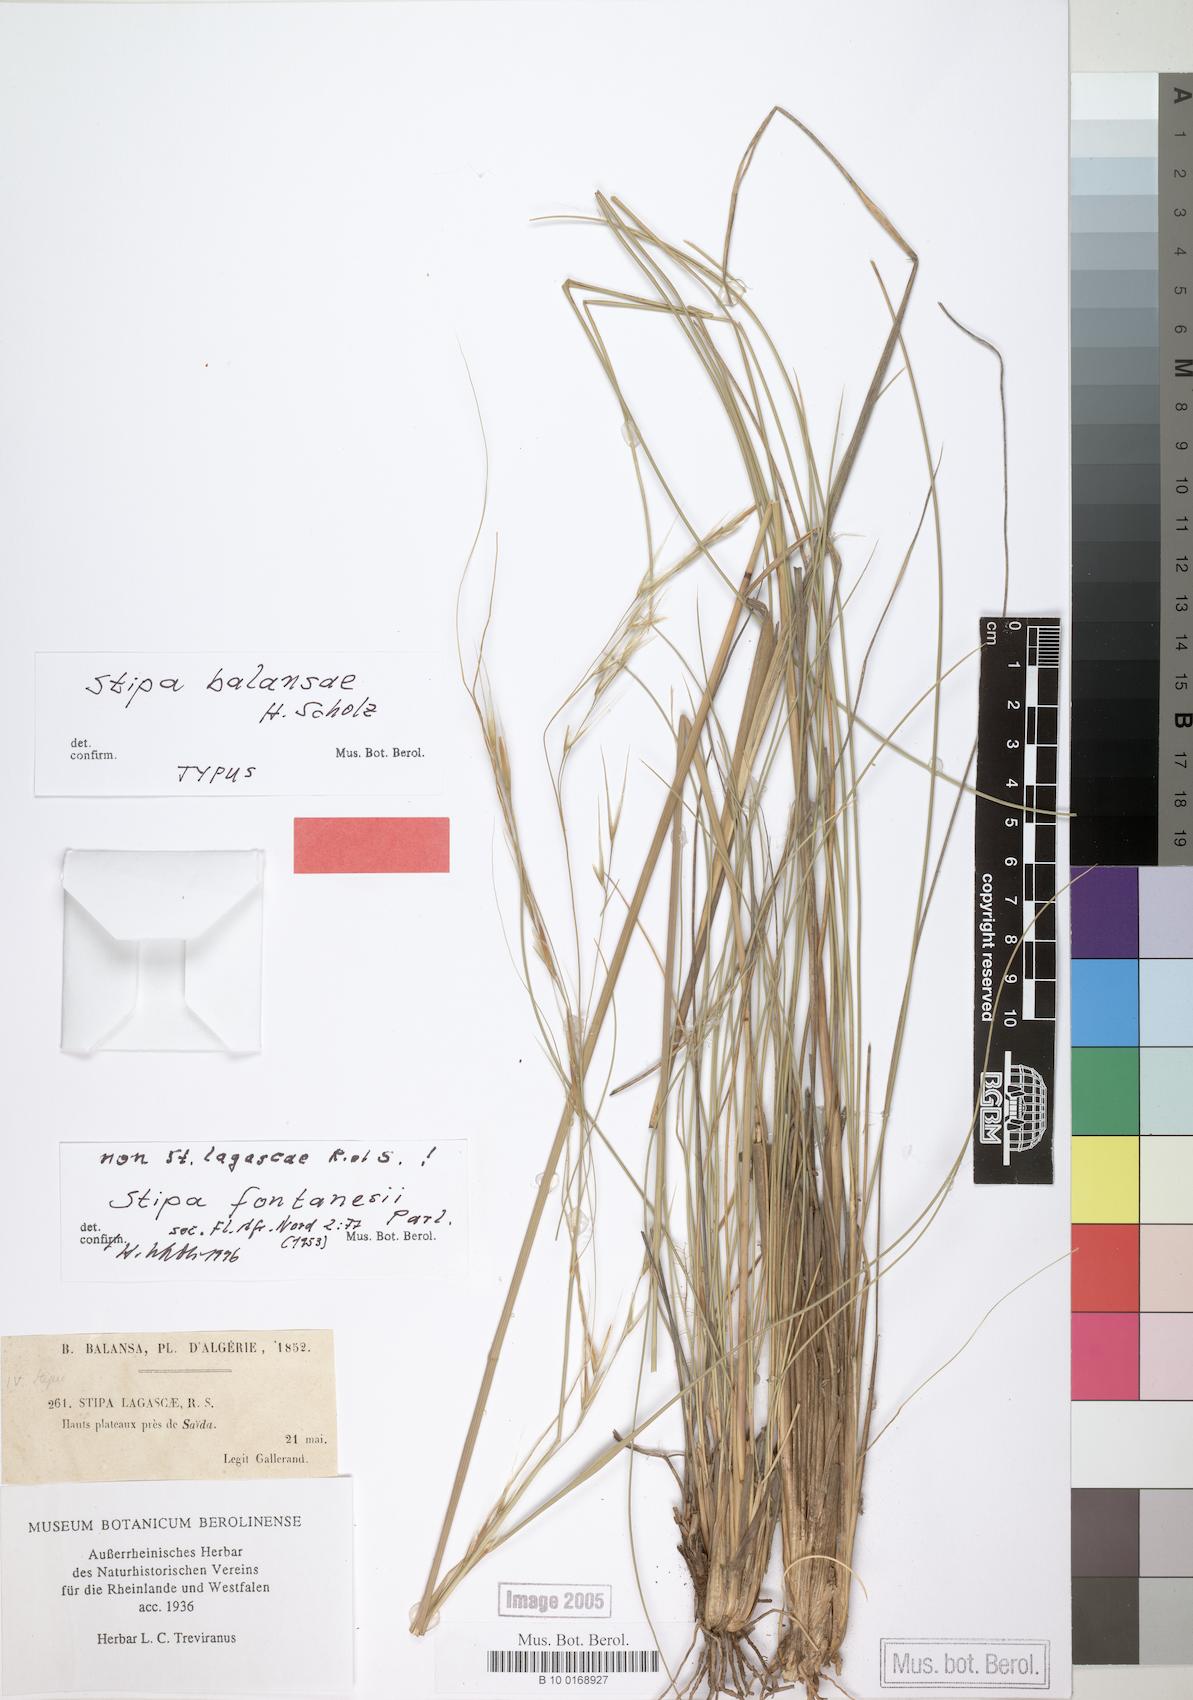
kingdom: Plantae
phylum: Tracheophyta
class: Liliopsida
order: Poales
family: Poaceae
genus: Stipa
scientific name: Stipa balansae
